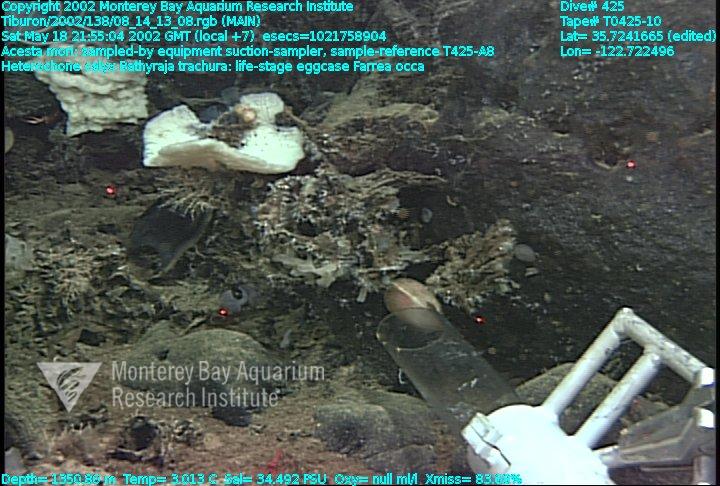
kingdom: Animalia
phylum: Porifera
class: Hexactinellida
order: Sceptrulophora
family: Farreidae
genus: Farrea
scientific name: Farrea occa
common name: Reversed glass sponge
